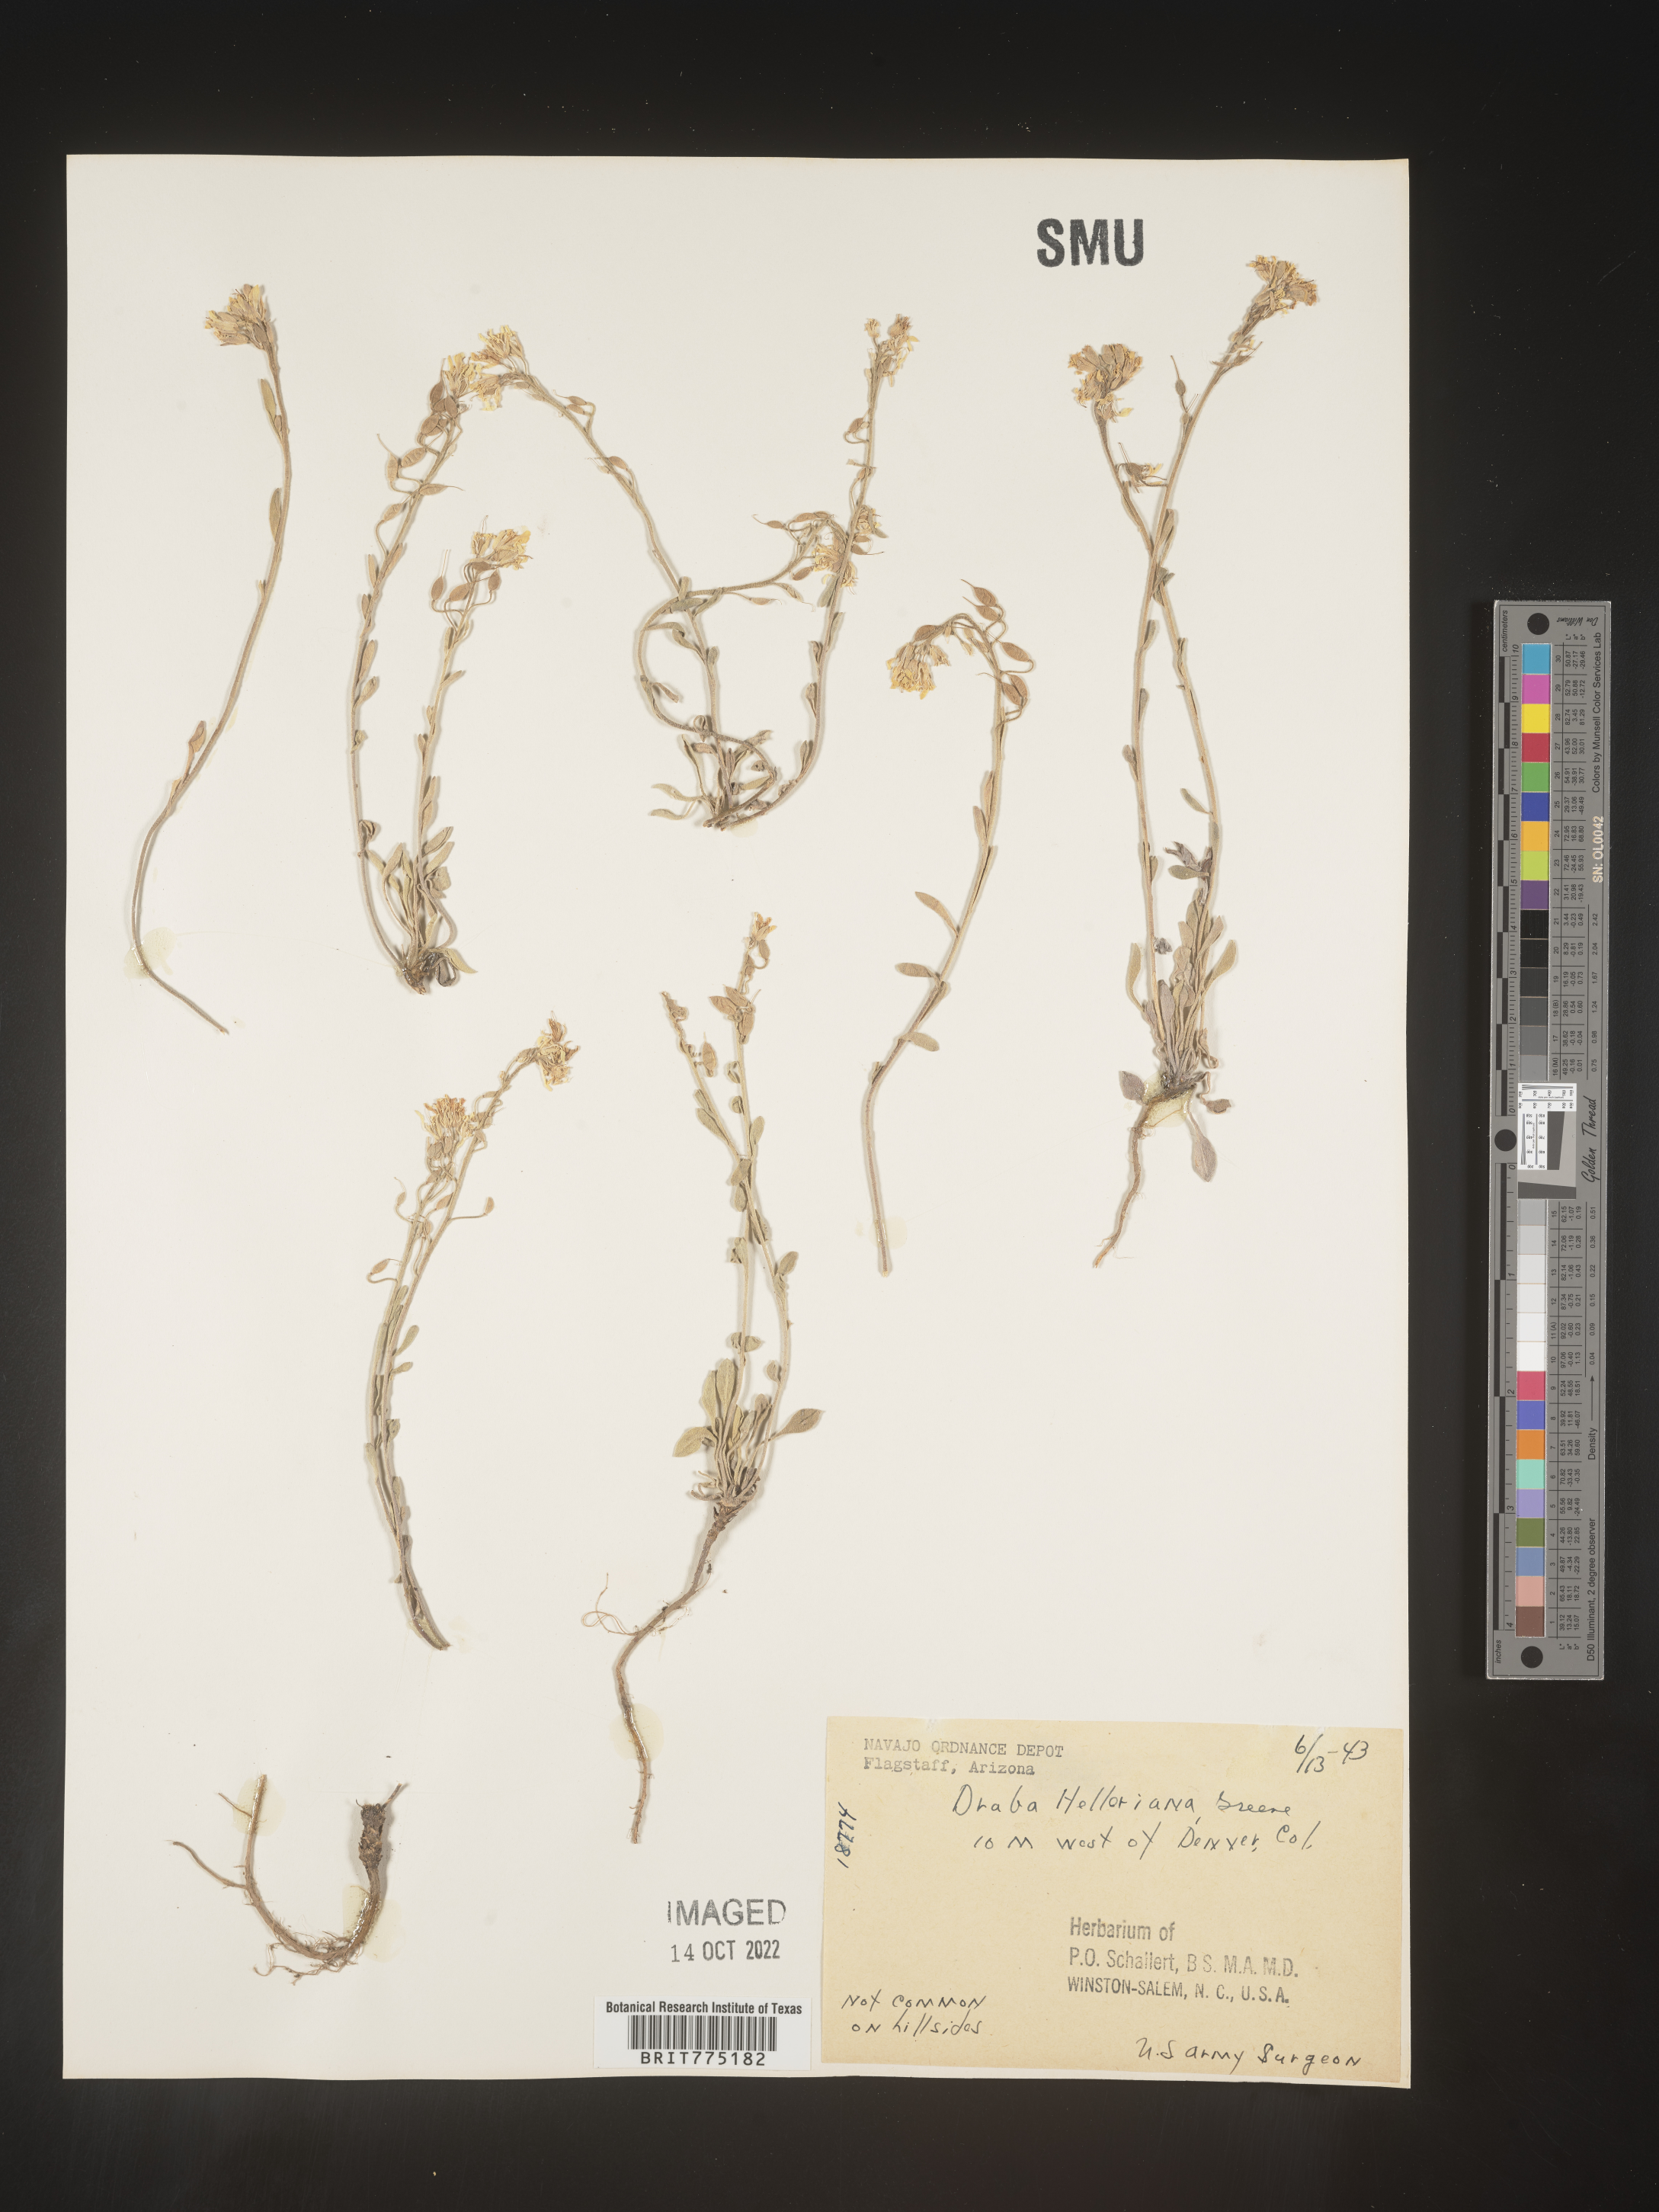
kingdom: Plantae
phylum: Tracheophyta
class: Magnoliopsida
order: Brassicales
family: Brassicaceae
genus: Draba
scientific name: Draba
